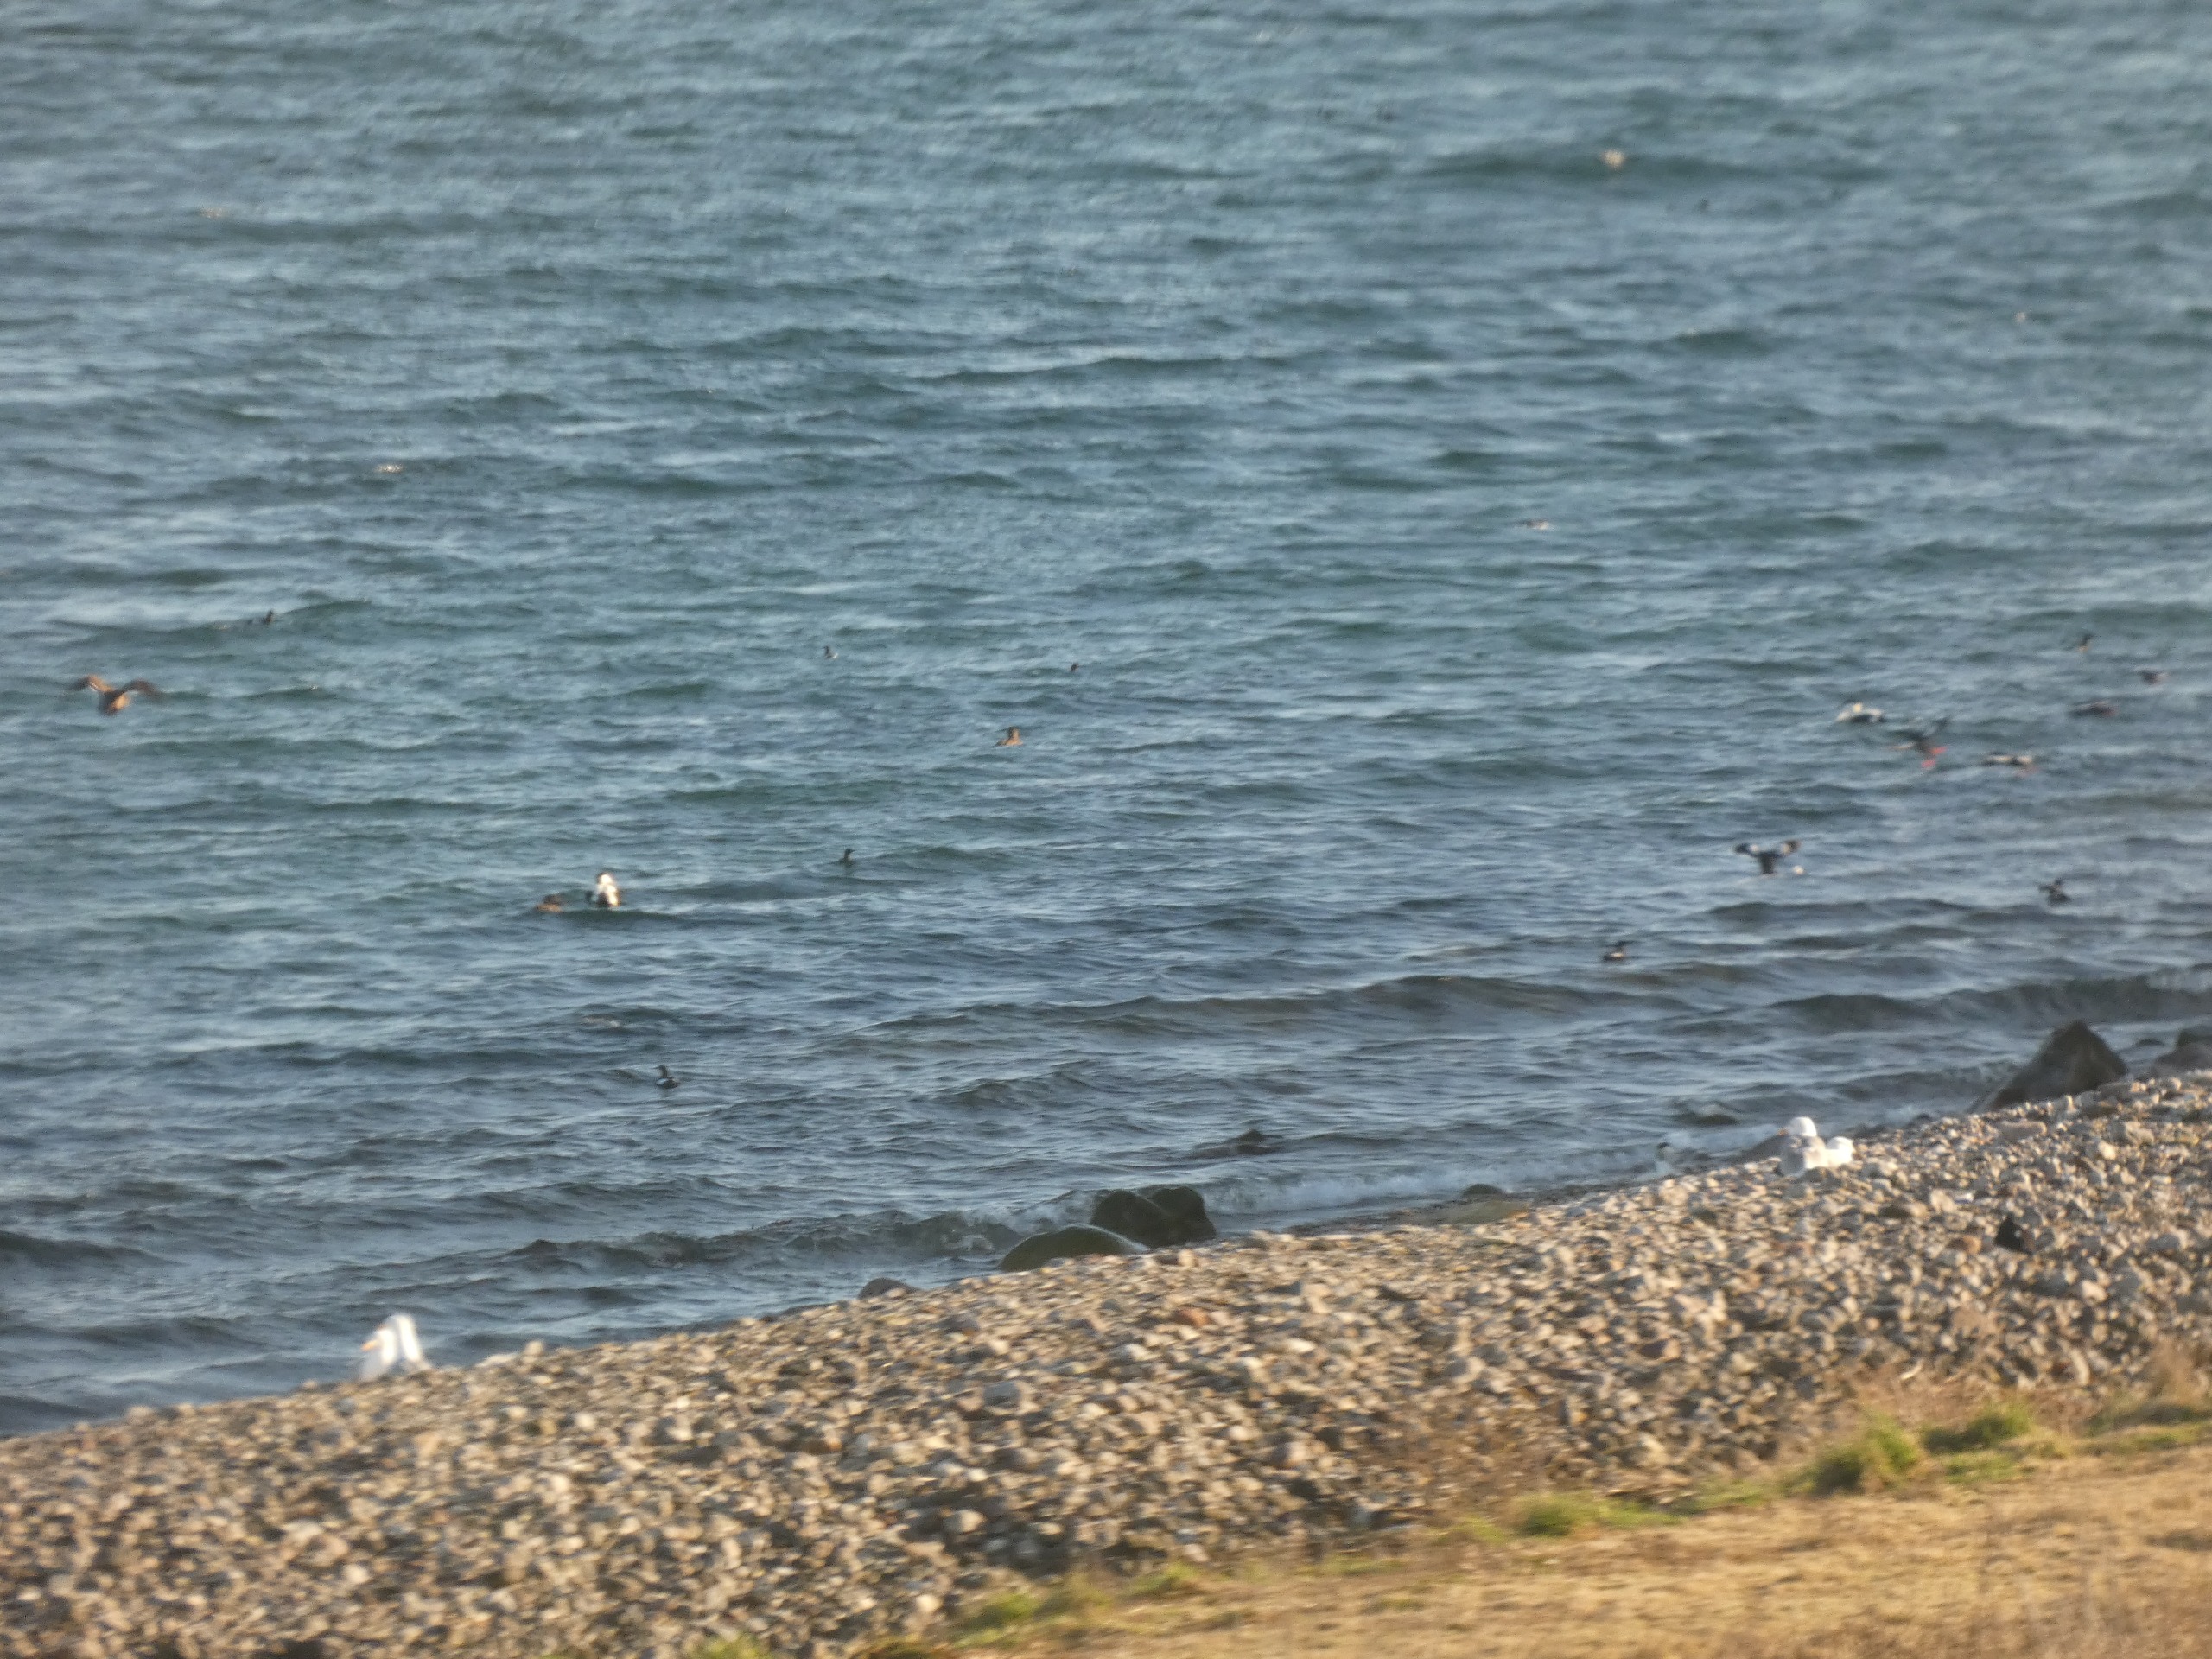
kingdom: Animalia
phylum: Chordata
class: Aves
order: Anseriformes
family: Anatidae
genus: Somateria
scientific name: Somateria mollissima
